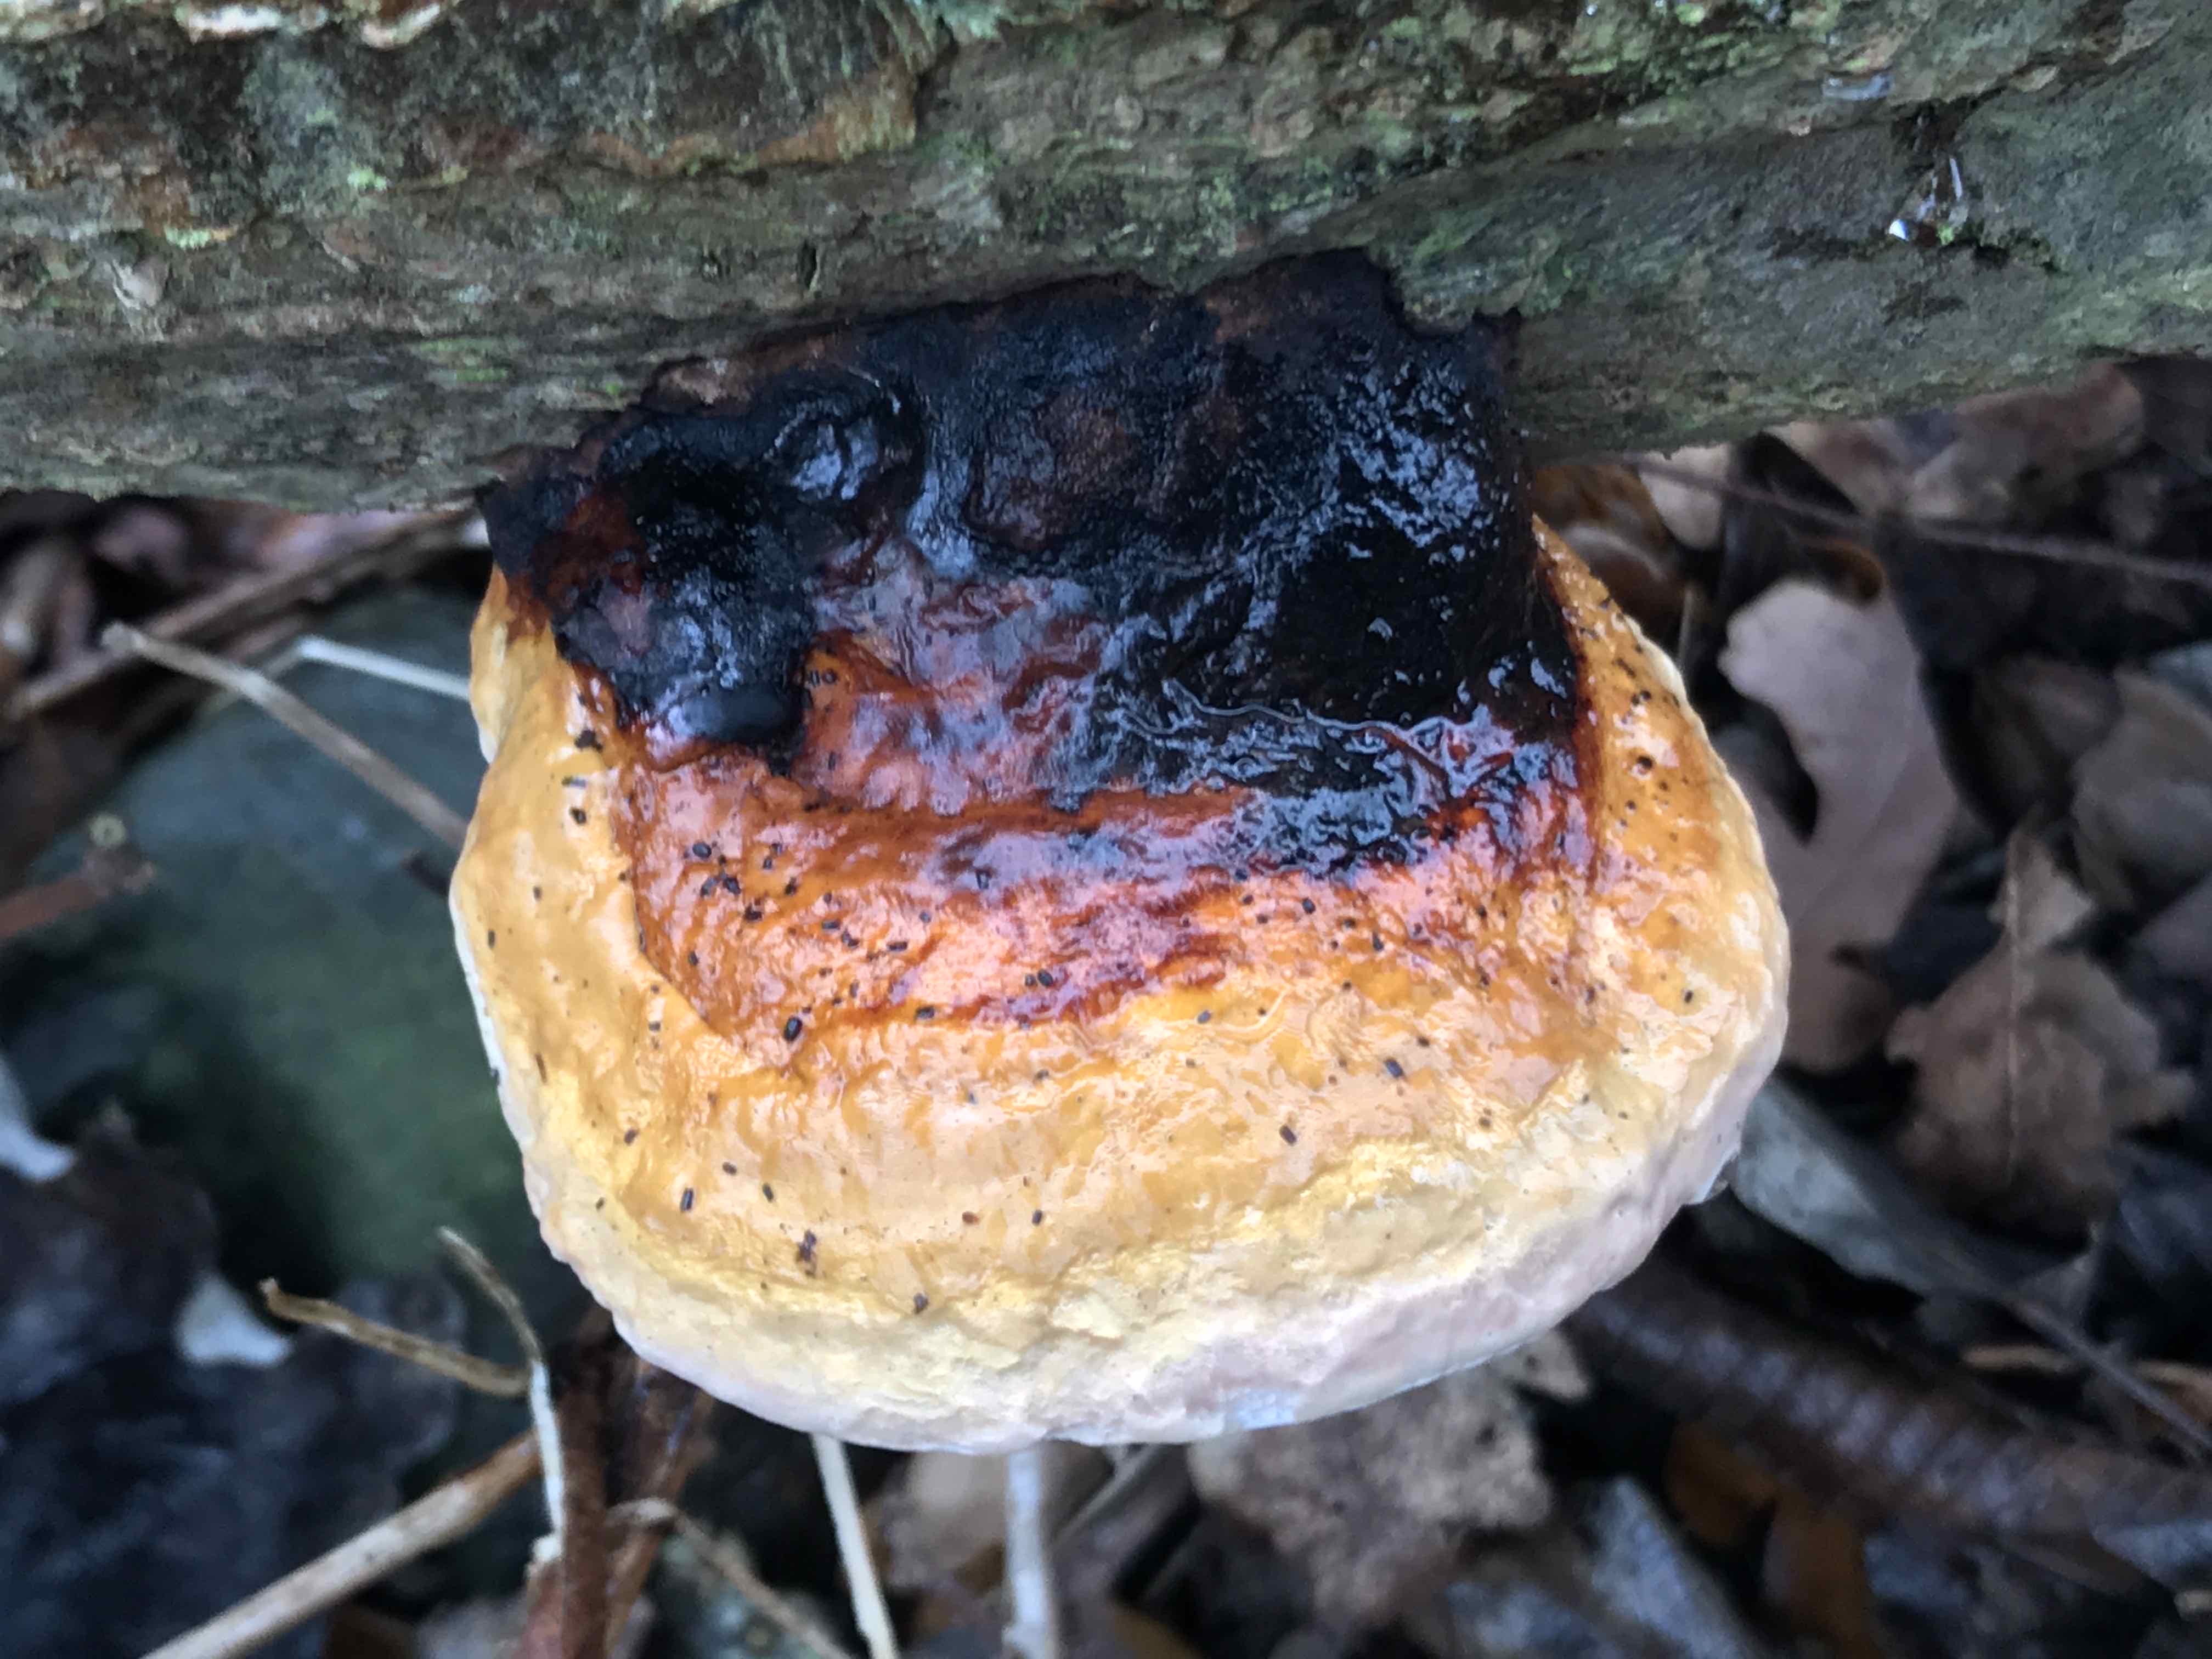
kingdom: Fungi
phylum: Basidiomycota
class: Agaricomycetes
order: Polyporales
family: Fomitopsidaceae
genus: Fomitopsis
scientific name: Fomitopsis pinicola
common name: randbæltet hovporesvamp
